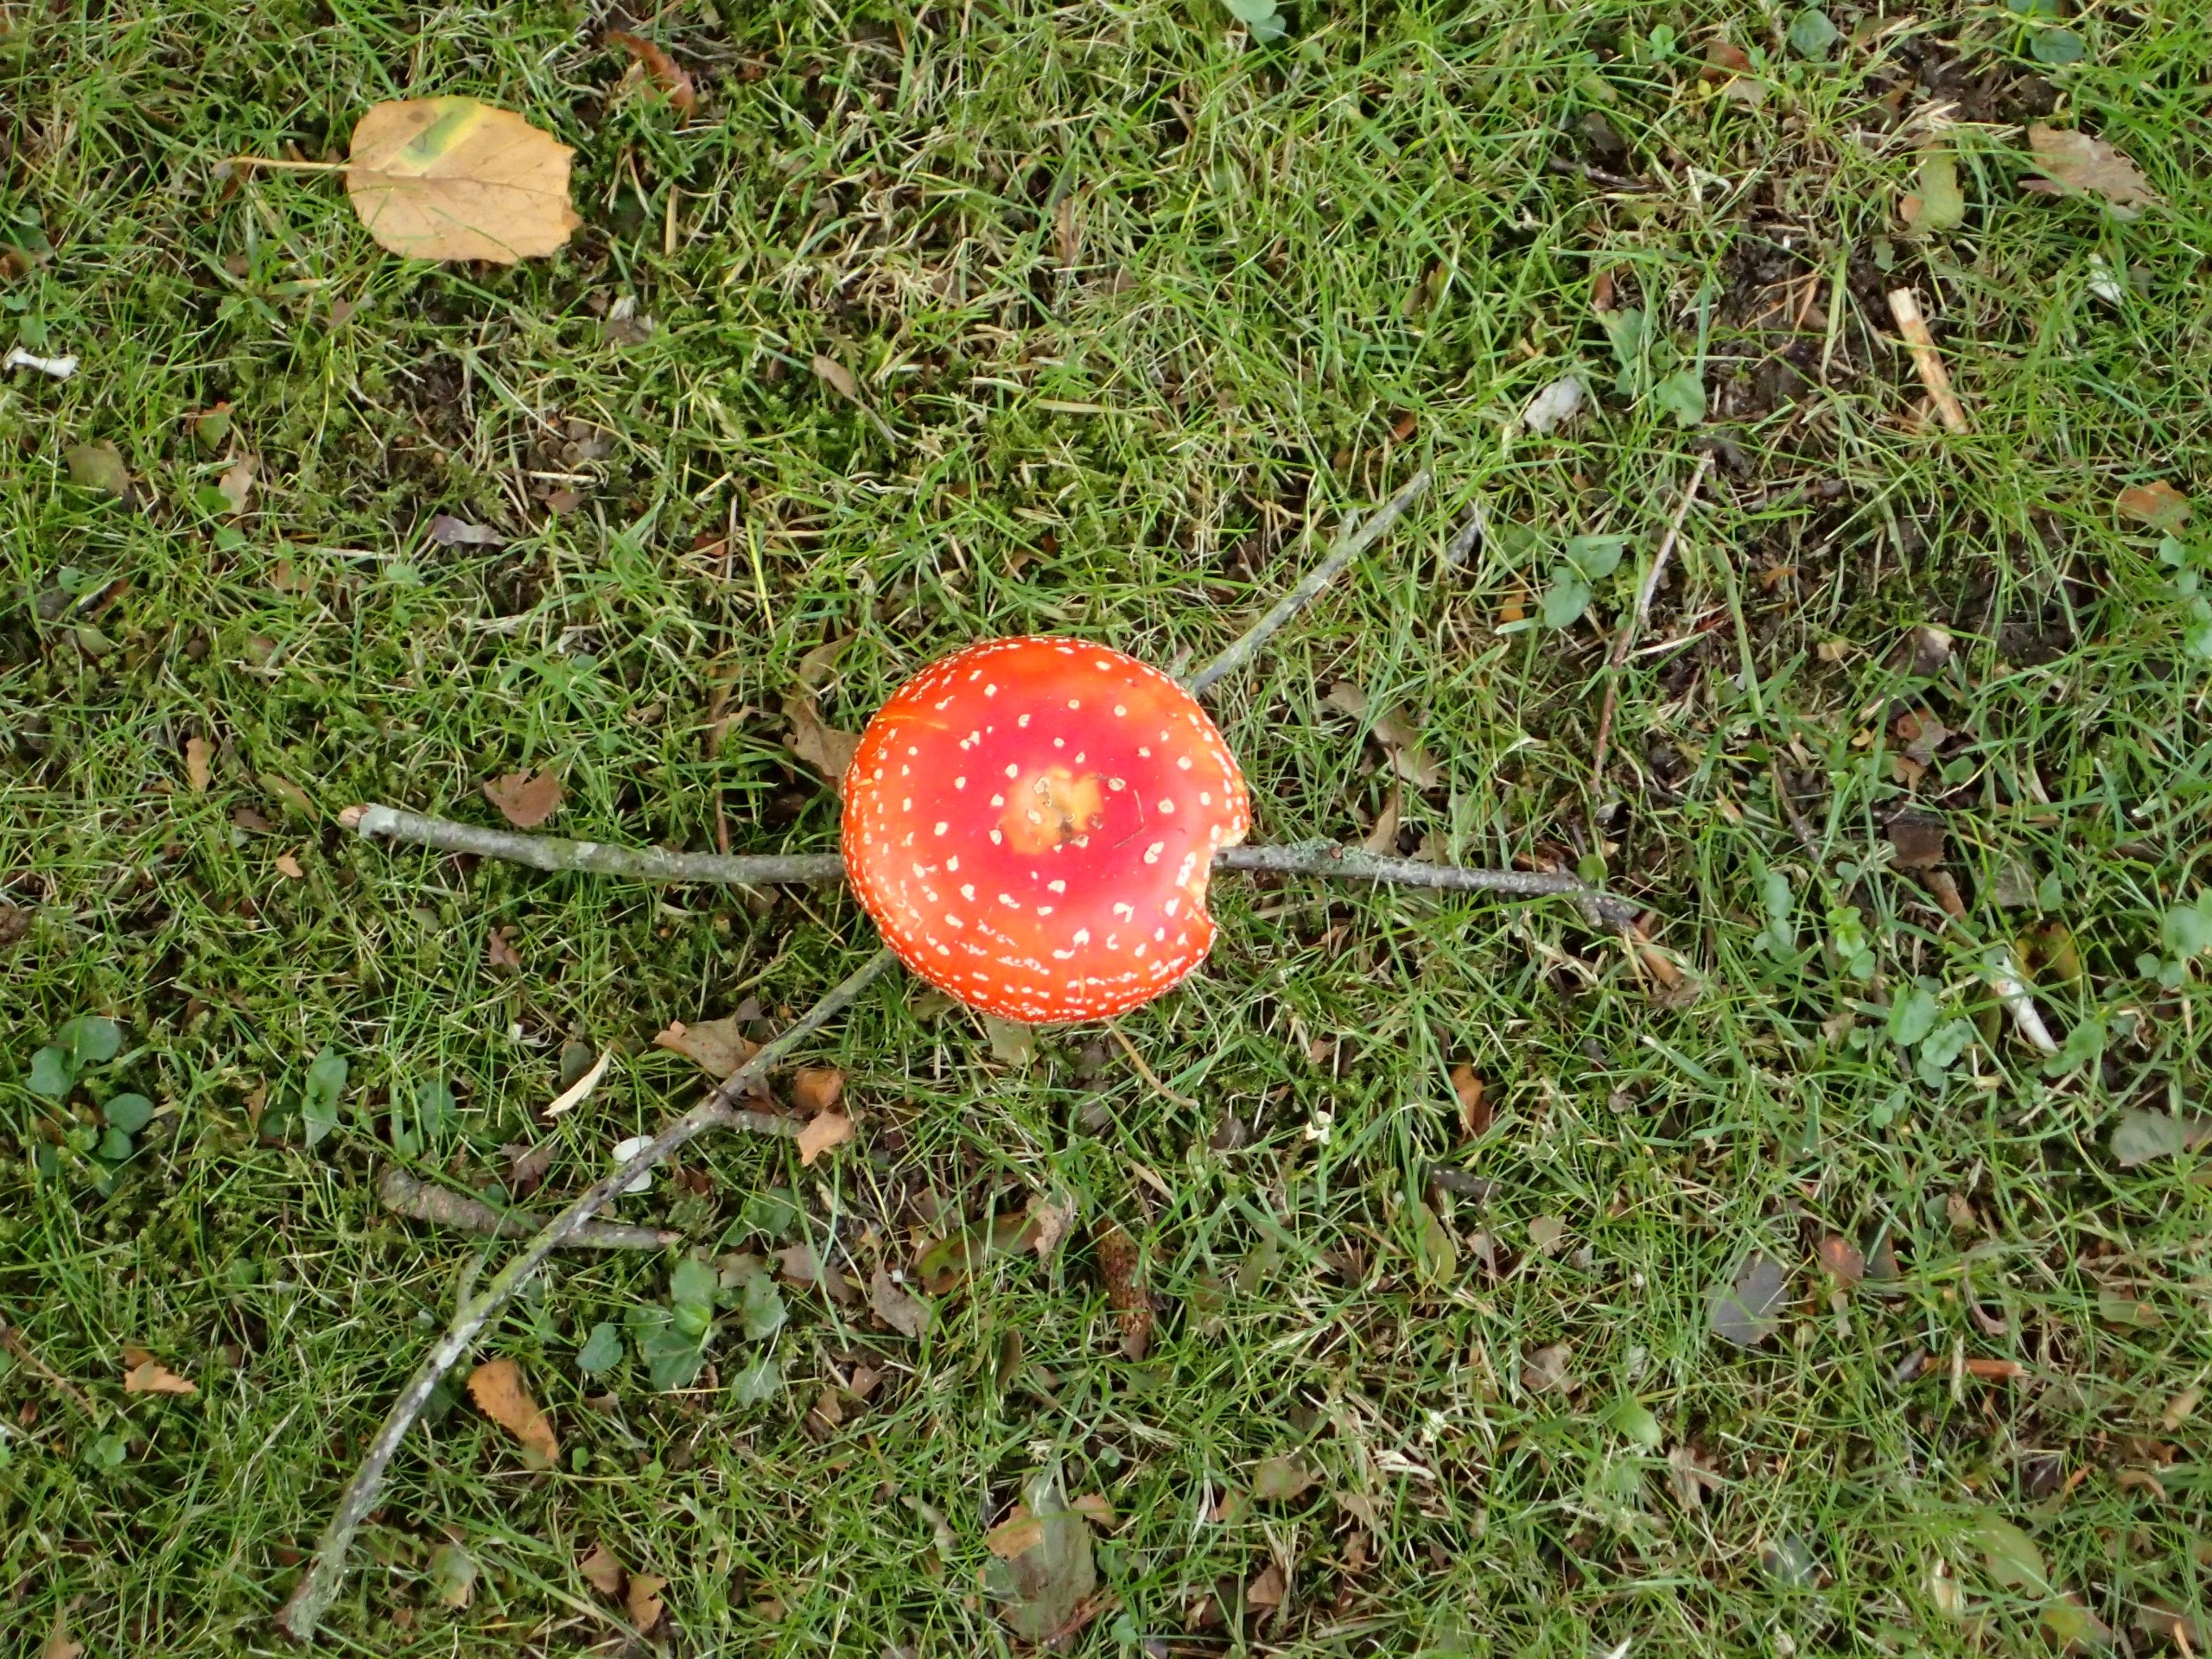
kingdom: Fungi
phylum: Basidiomycota
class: Agaricomycetes
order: Agaricales
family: Amanitaceae
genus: Amanita
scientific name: Amanita muscaria
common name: Rød fluesvamp
